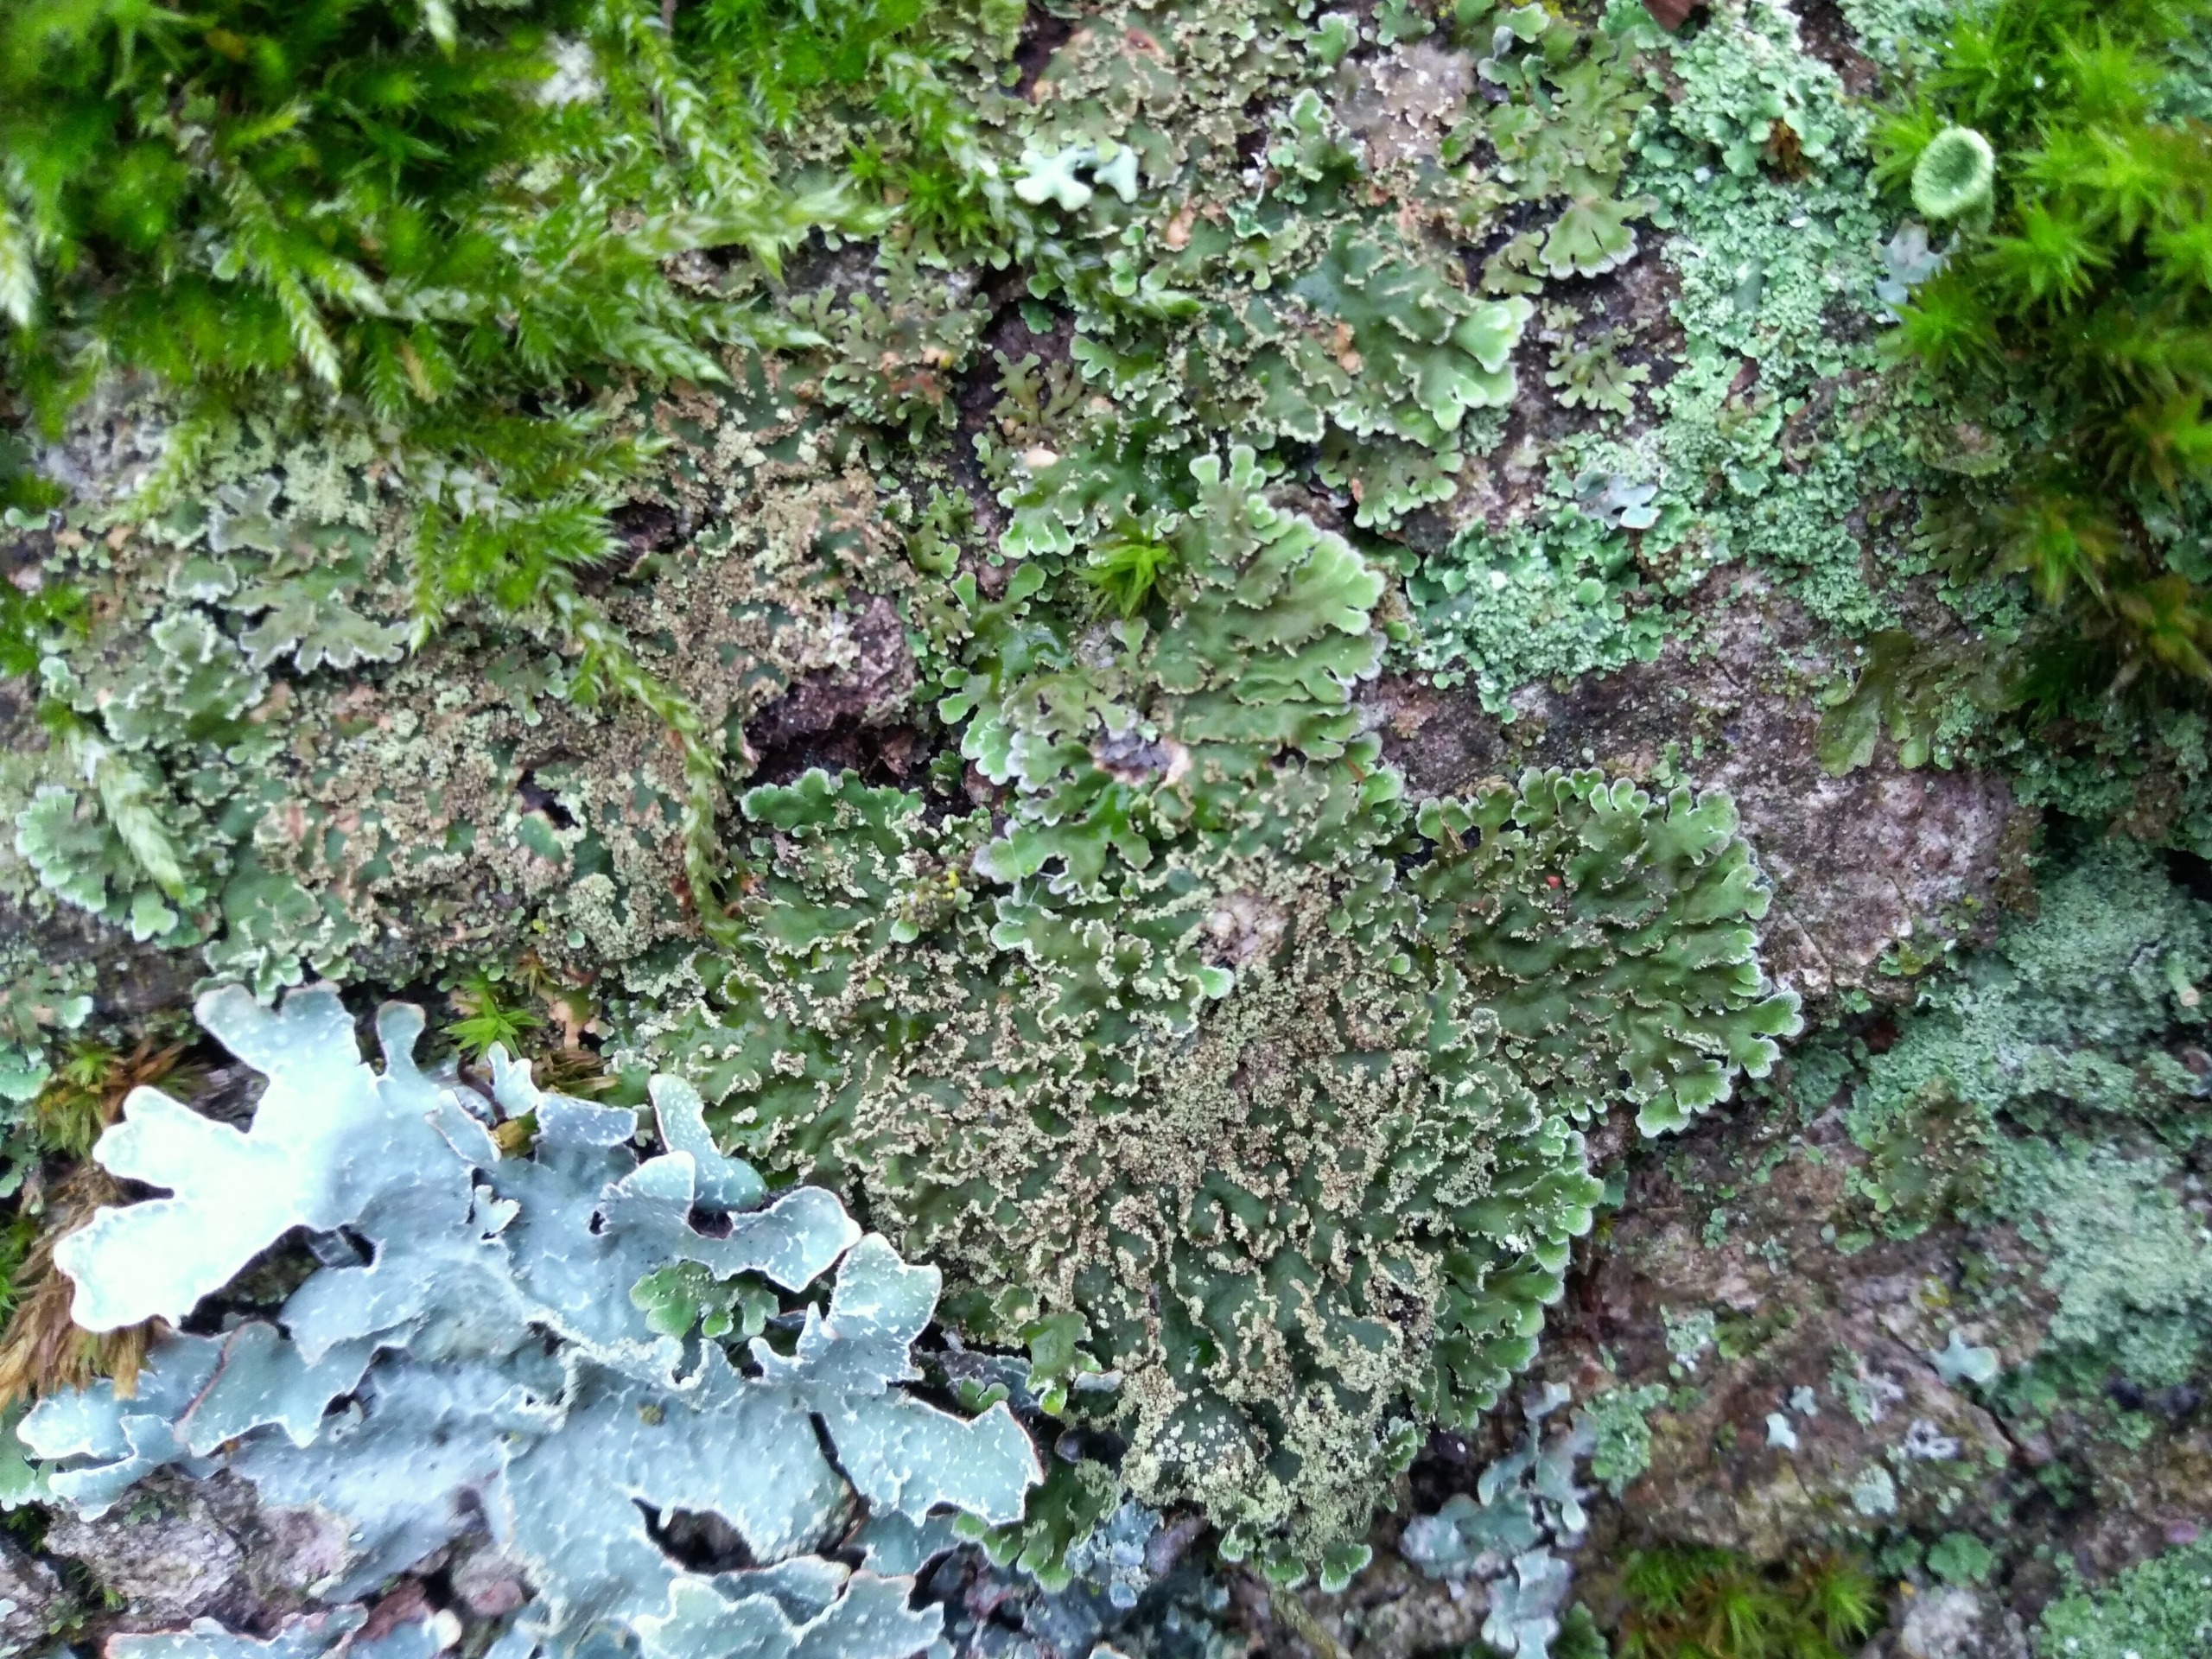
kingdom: Fungi
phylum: Ascomycota
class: Lecanoromycetes
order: Caliciales
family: Physciaceae
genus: Physconia
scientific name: Physconia
